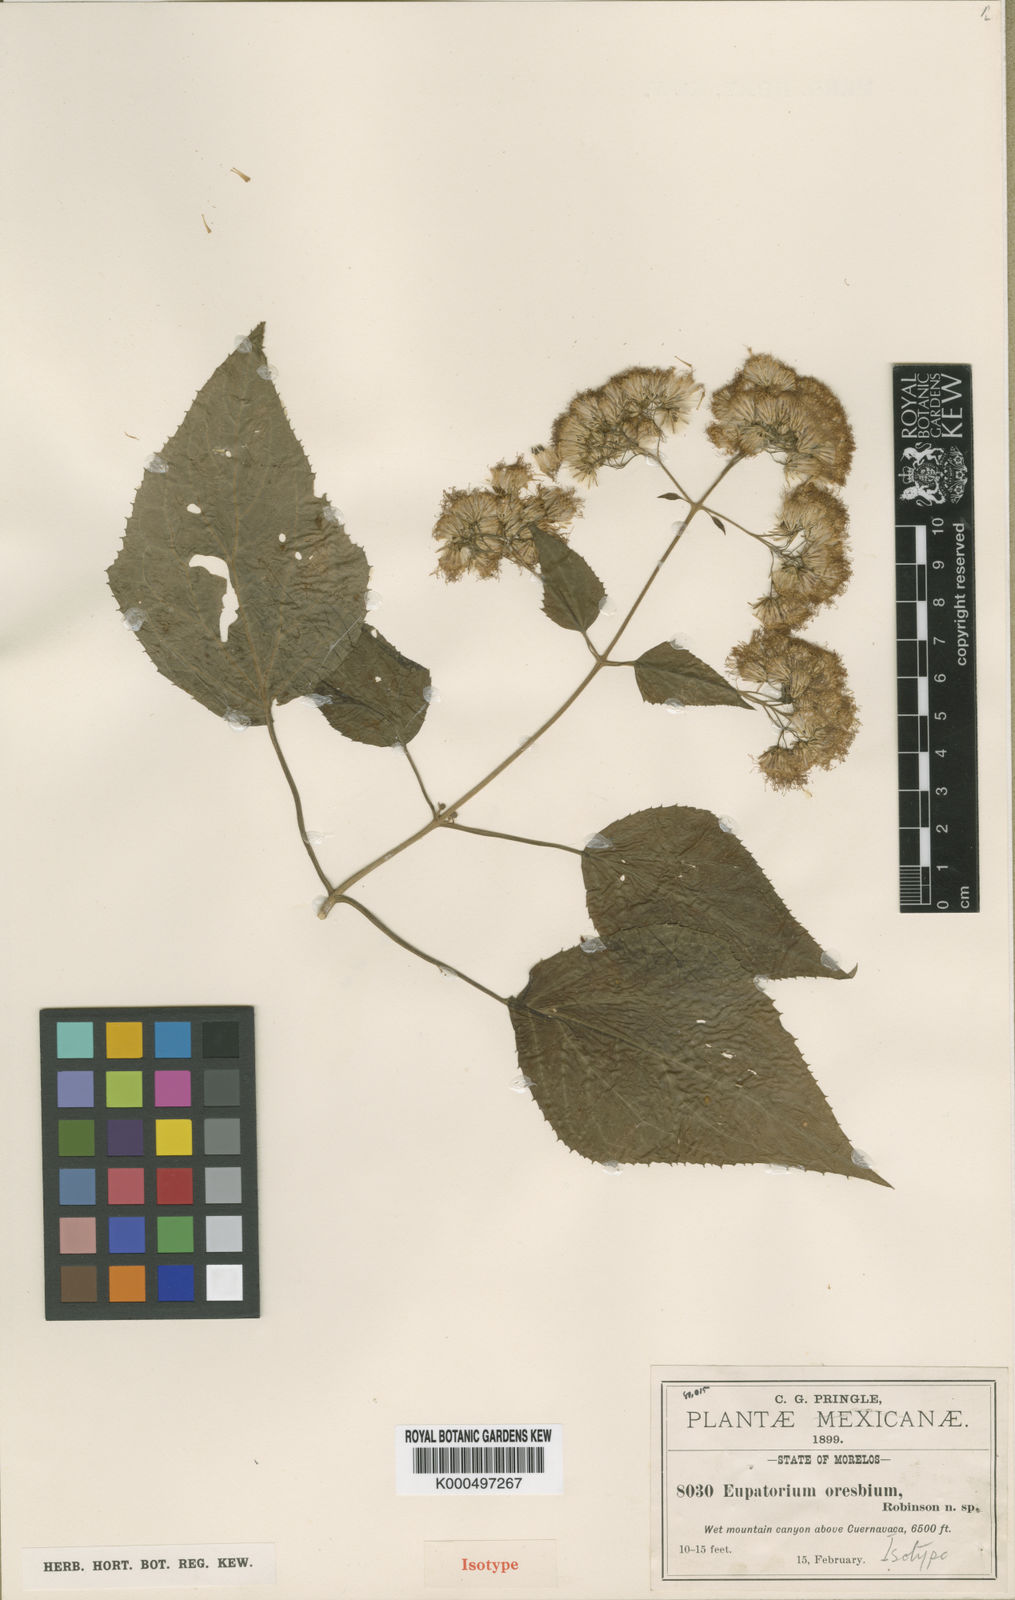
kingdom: Plantae
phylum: Tracheophyta
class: Magnoliopsida
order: Asterales
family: Asteraceae
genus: Bartlettina
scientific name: Bartlettina oresbia
